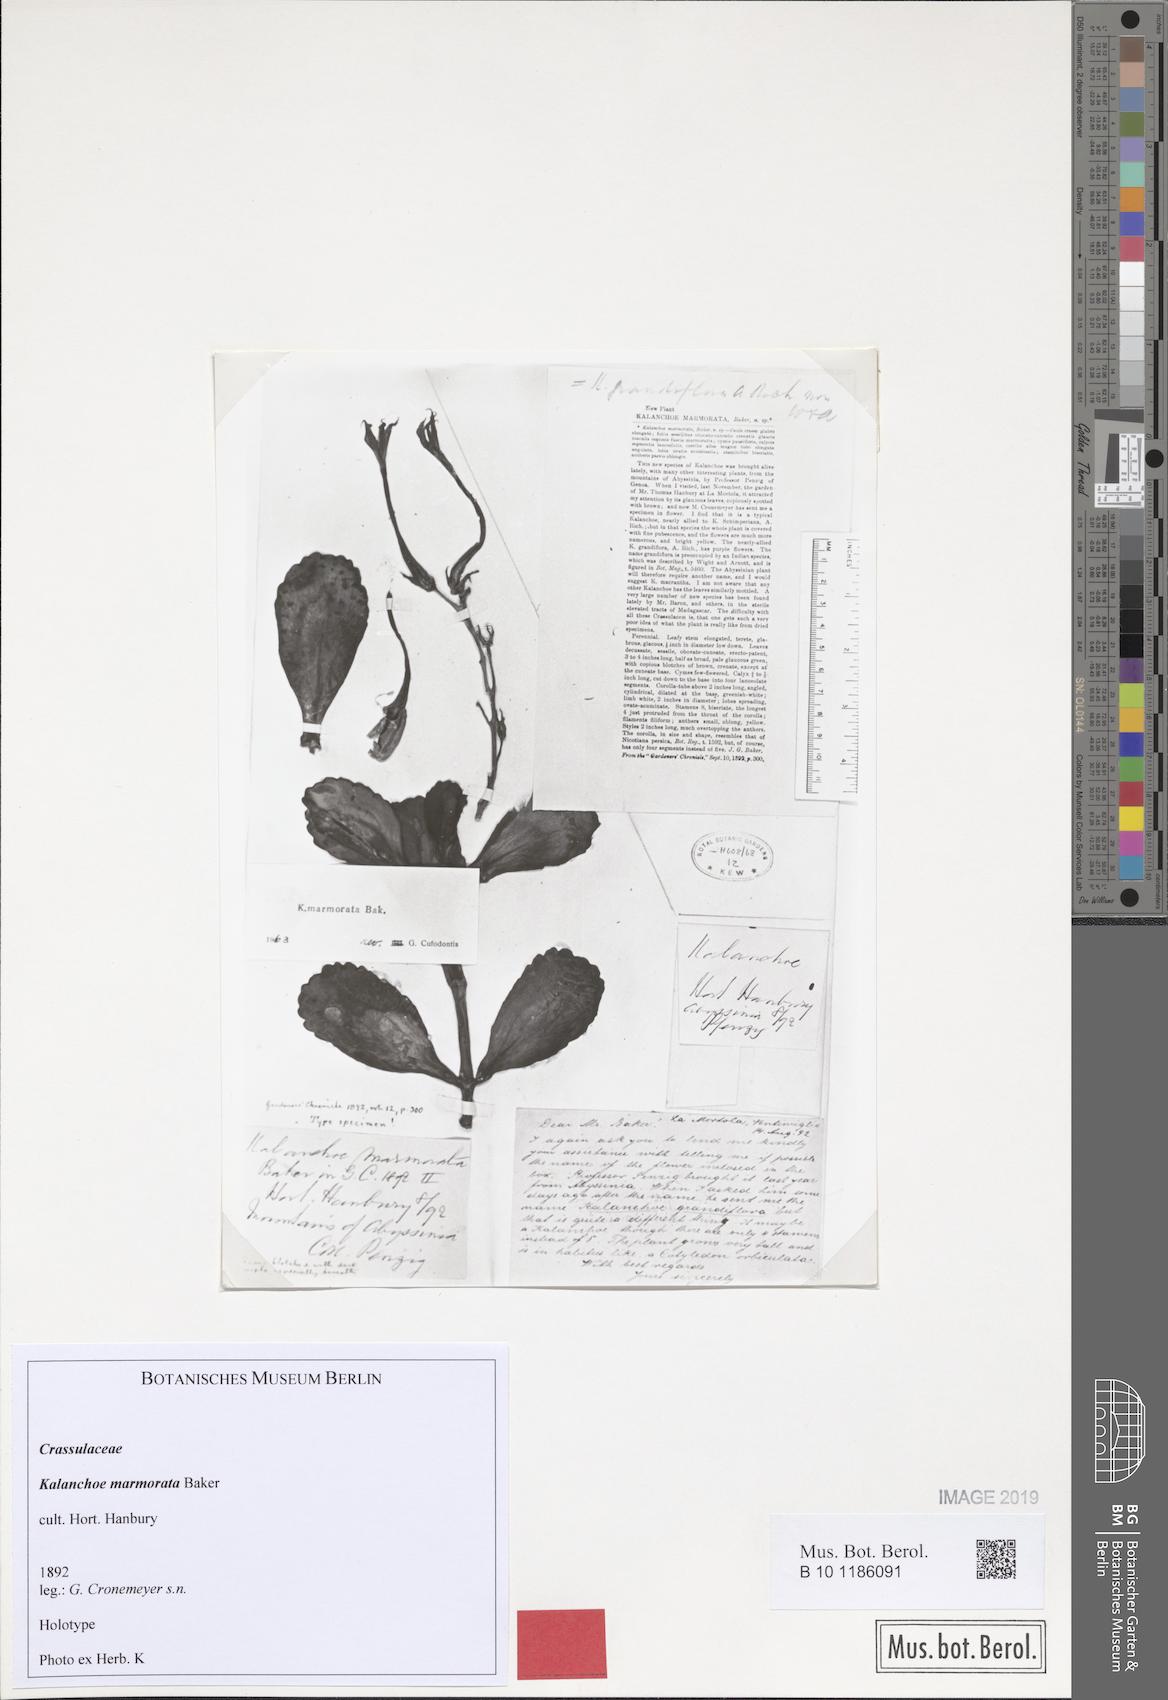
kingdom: Plantae
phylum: Tracheophyta
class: Magnoliopsida
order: Saxifragales
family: Crassulaceae
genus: Kalanchoe
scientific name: Kalanchoe marmorata
